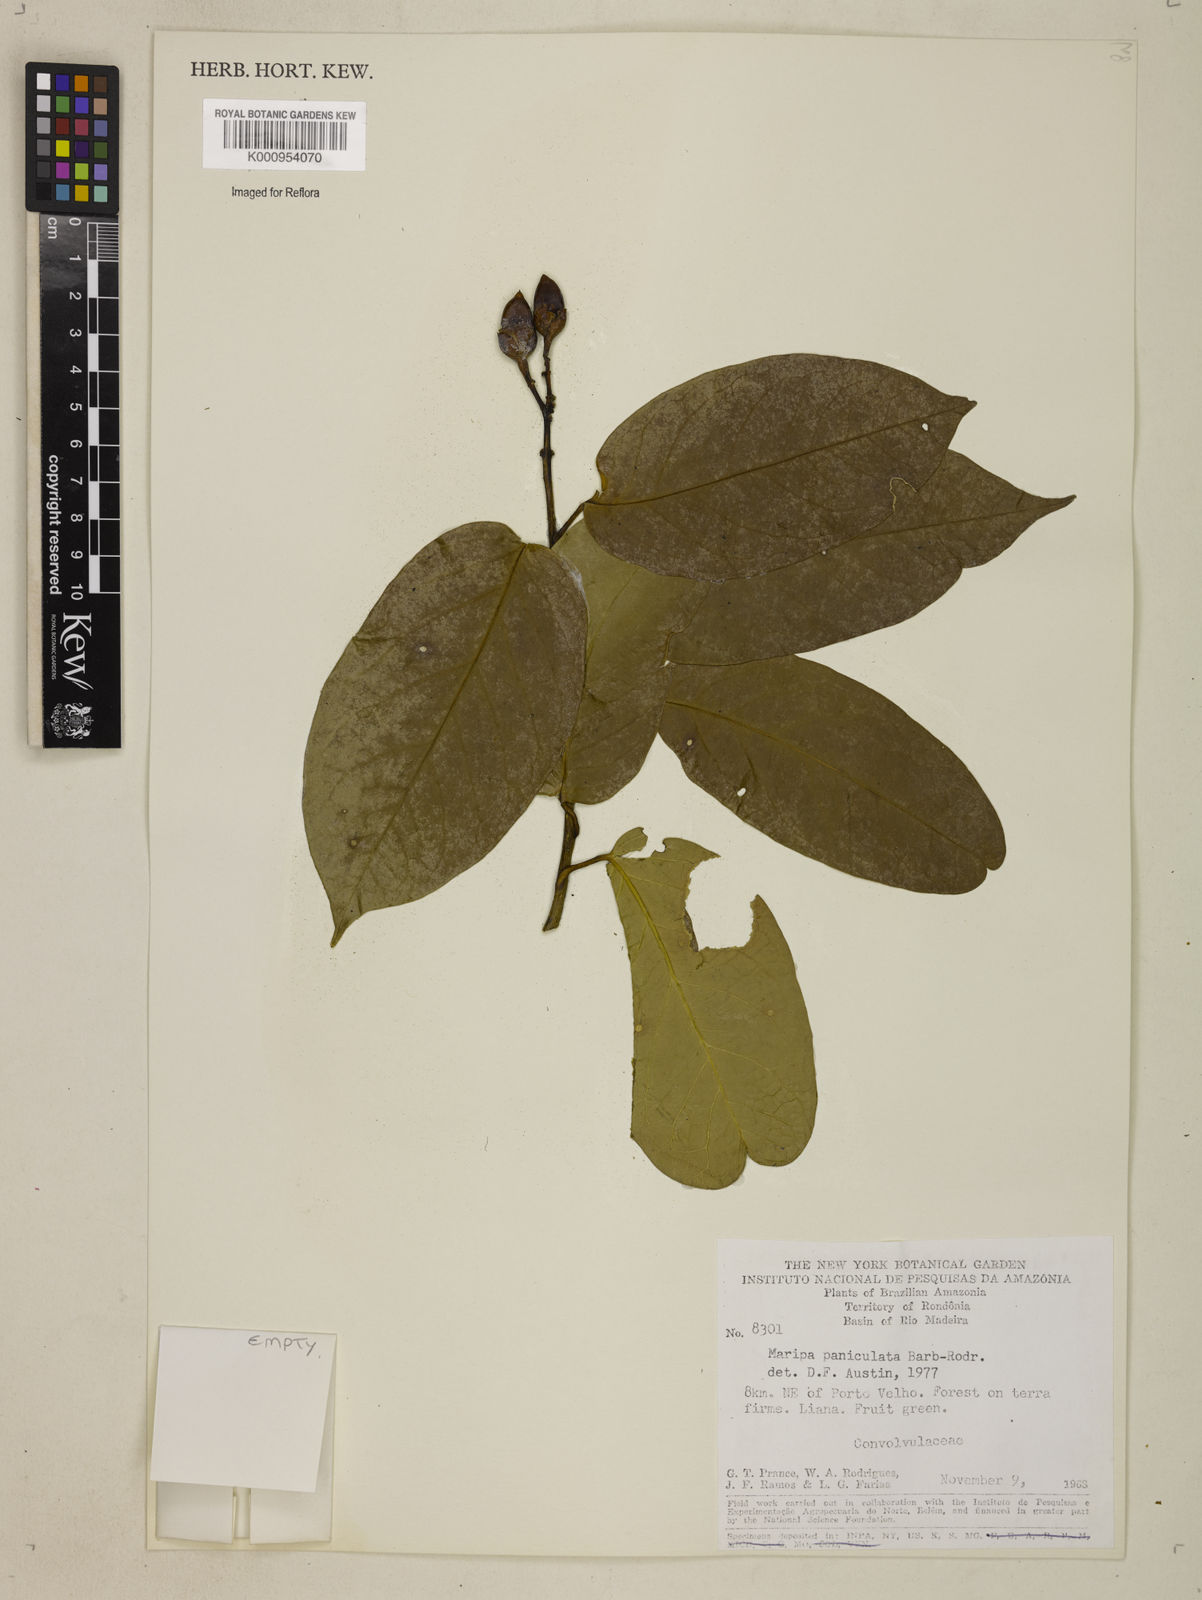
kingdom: Plantae
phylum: Tracheophyta
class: Magnoliopsida
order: Solanales
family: Convolvulaceae
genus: Maripa
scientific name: Maripa paniculata
